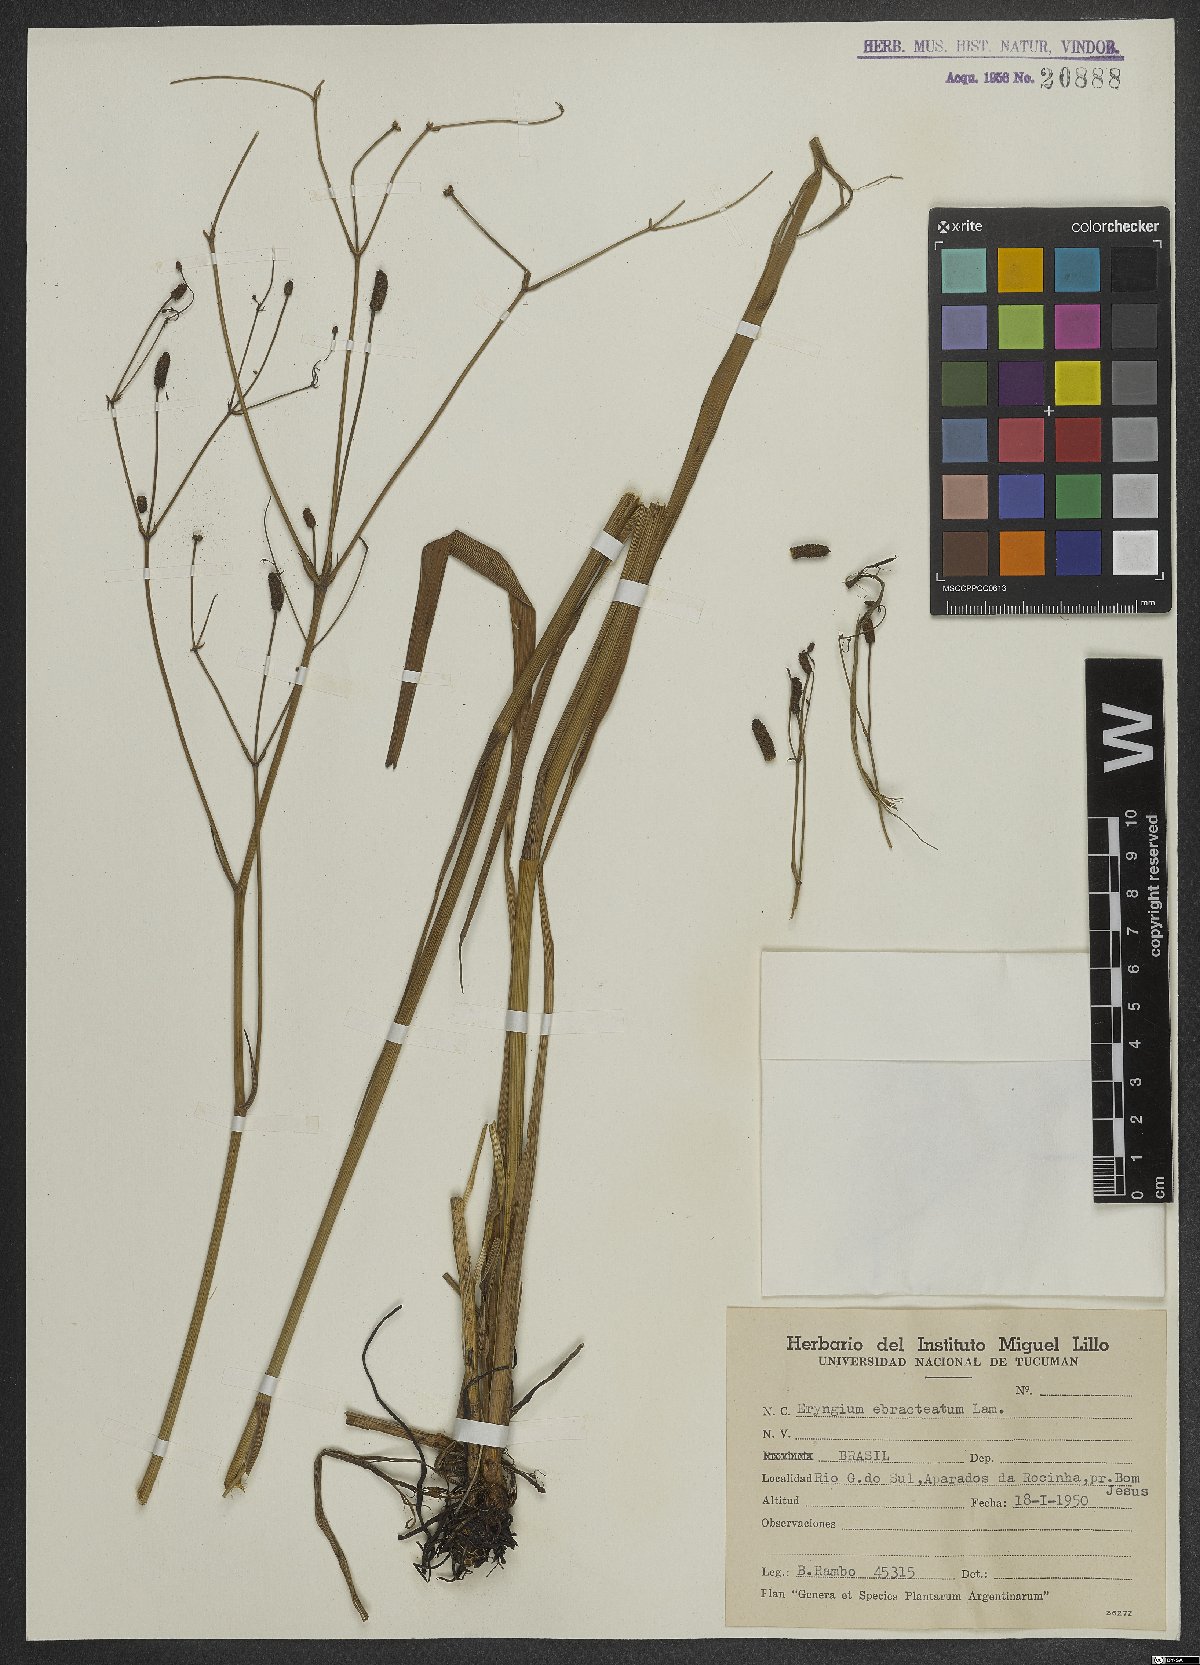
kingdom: Plantae
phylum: Tracheophyta
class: Magnoliopsida
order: Apiales
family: Apiaceae
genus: Eryngium
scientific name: Eryngium ebracteatum
